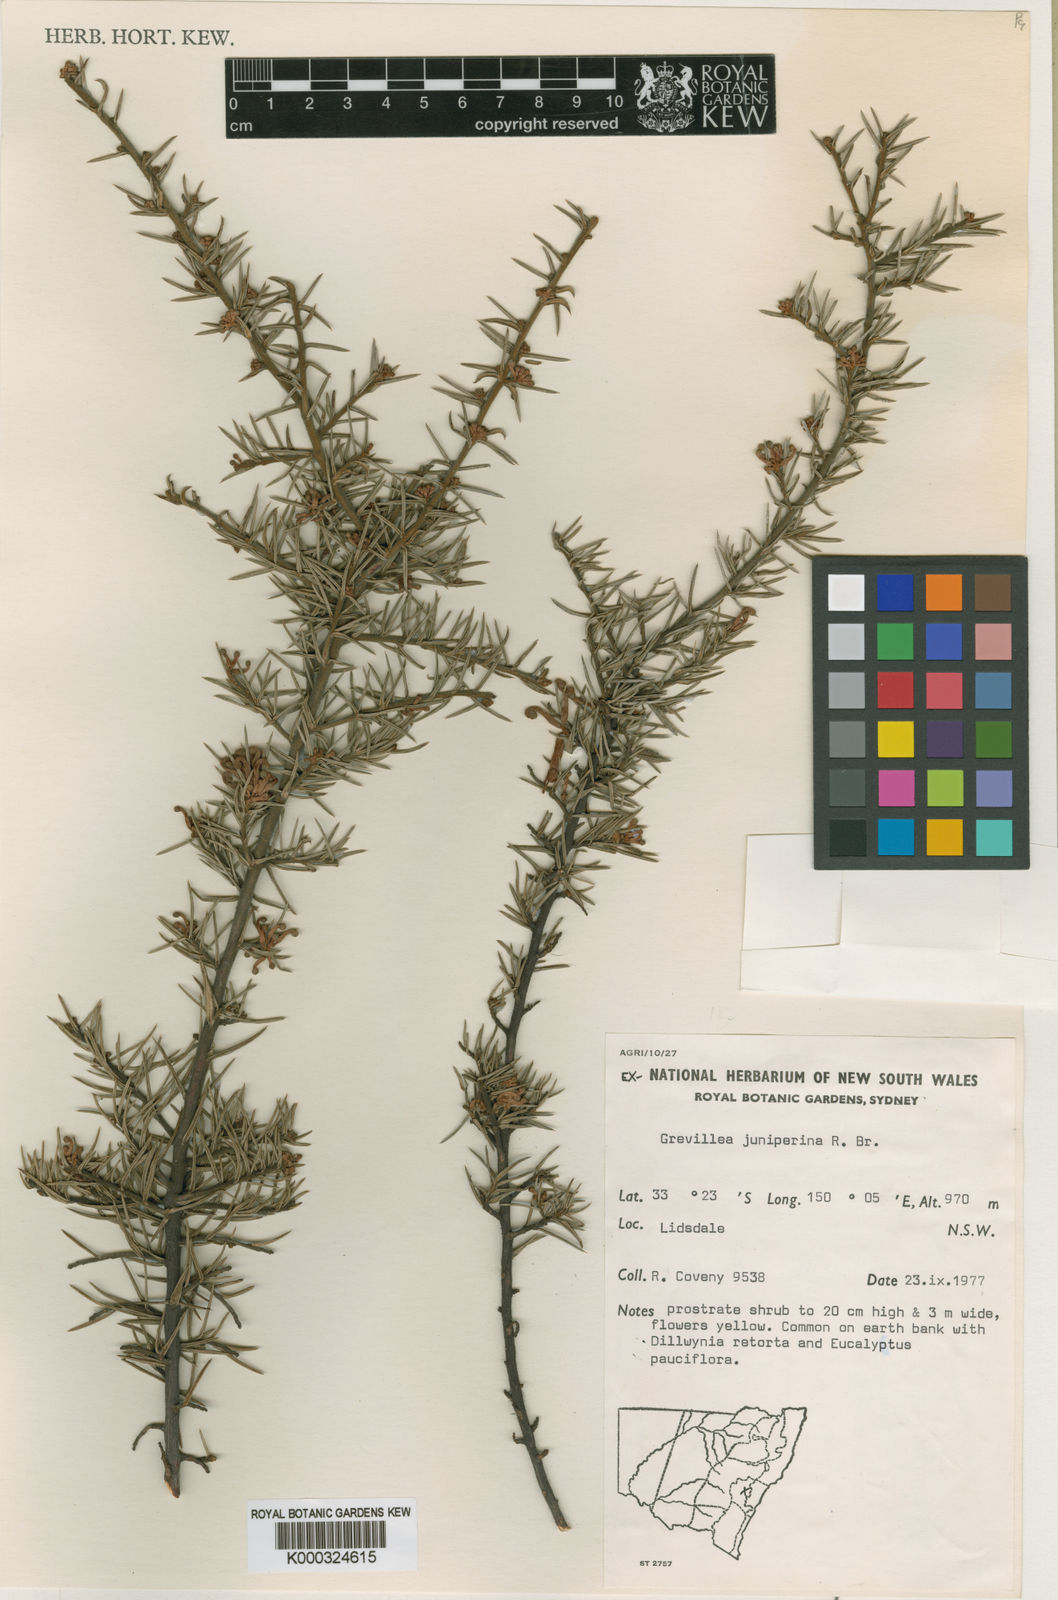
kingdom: Plantae
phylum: Tracheophyta
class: Magnoliopsida
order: Proteales
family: Proteaceae
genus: Grevillea
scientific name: Grevillea juniperina
